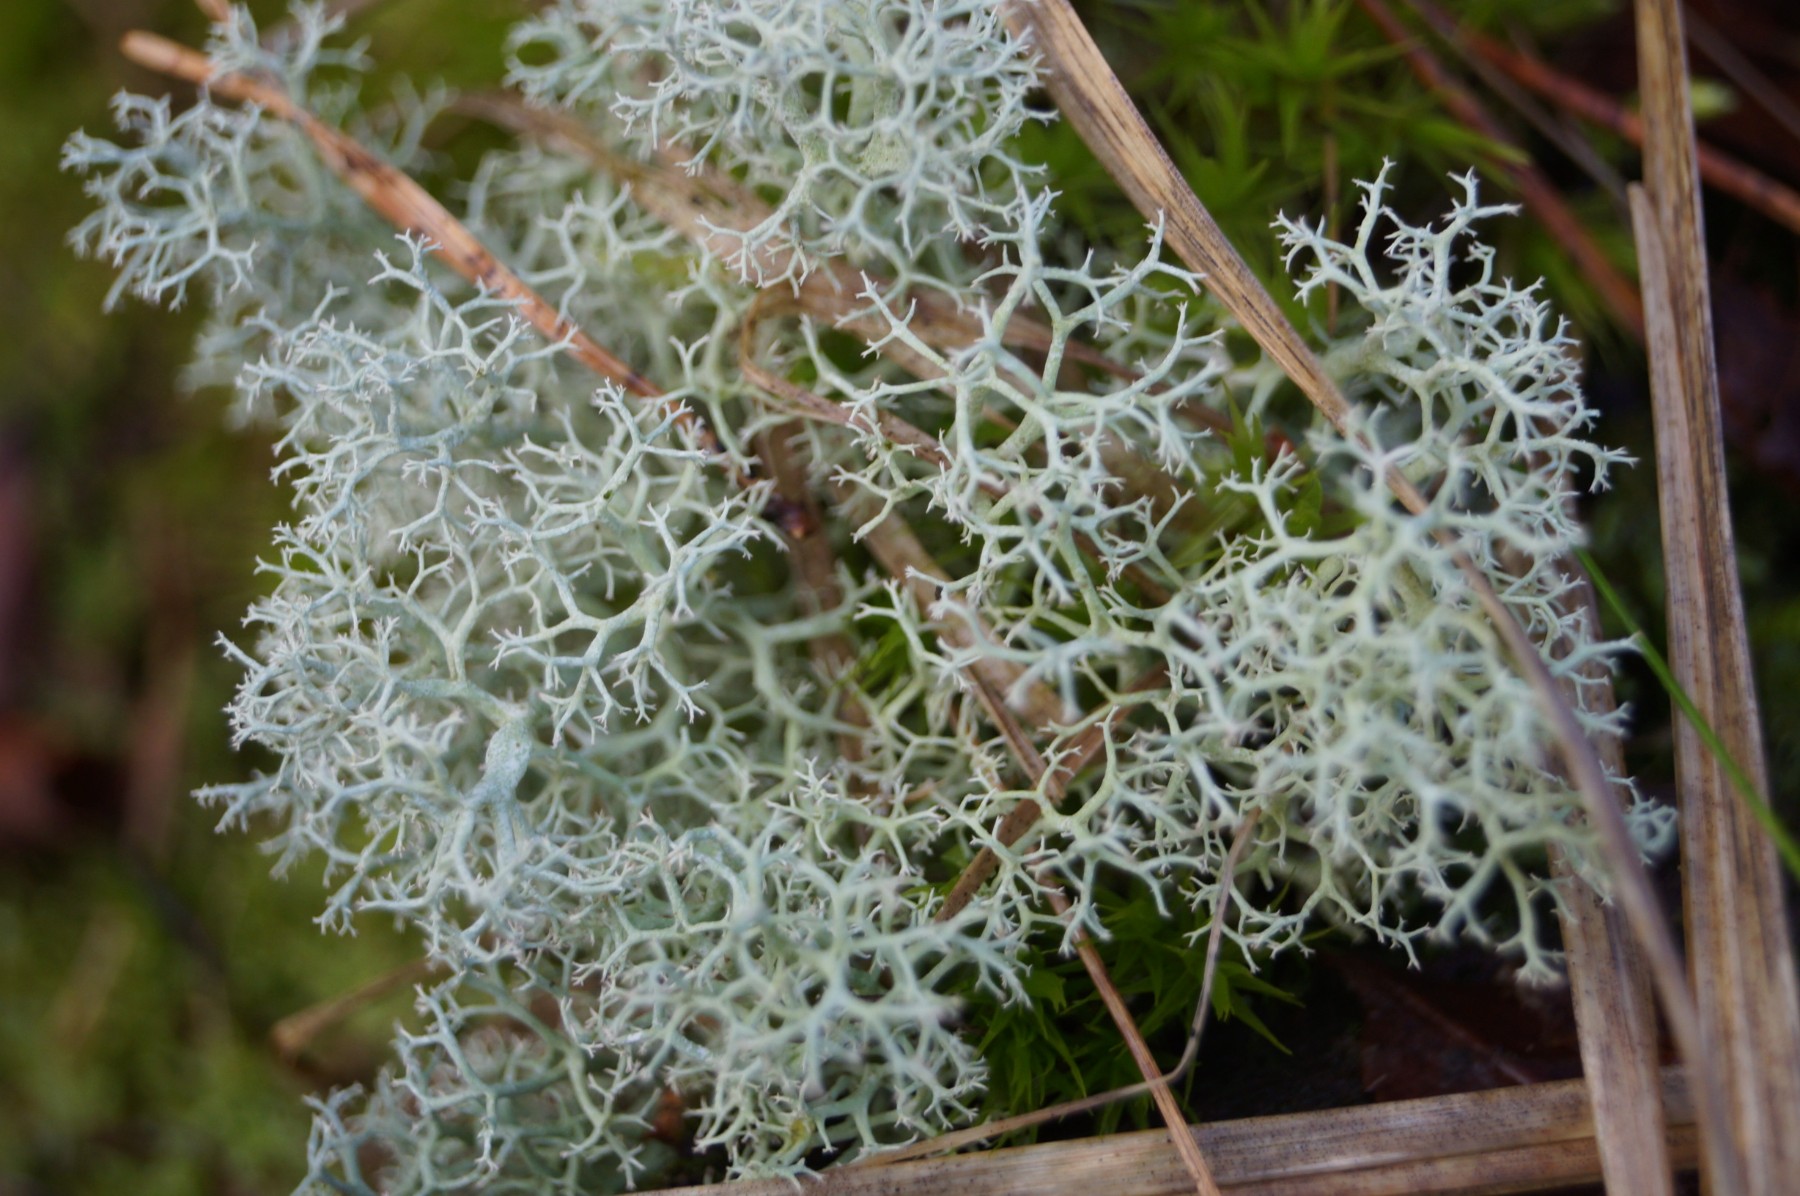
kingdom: Fungi
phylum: Ascomycota
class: Lecanoromycetes
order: Lecanorales
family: Cladoniaceae
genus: Cladonia
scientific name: Cladonia portentosa
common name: hede-rensdyrlav
